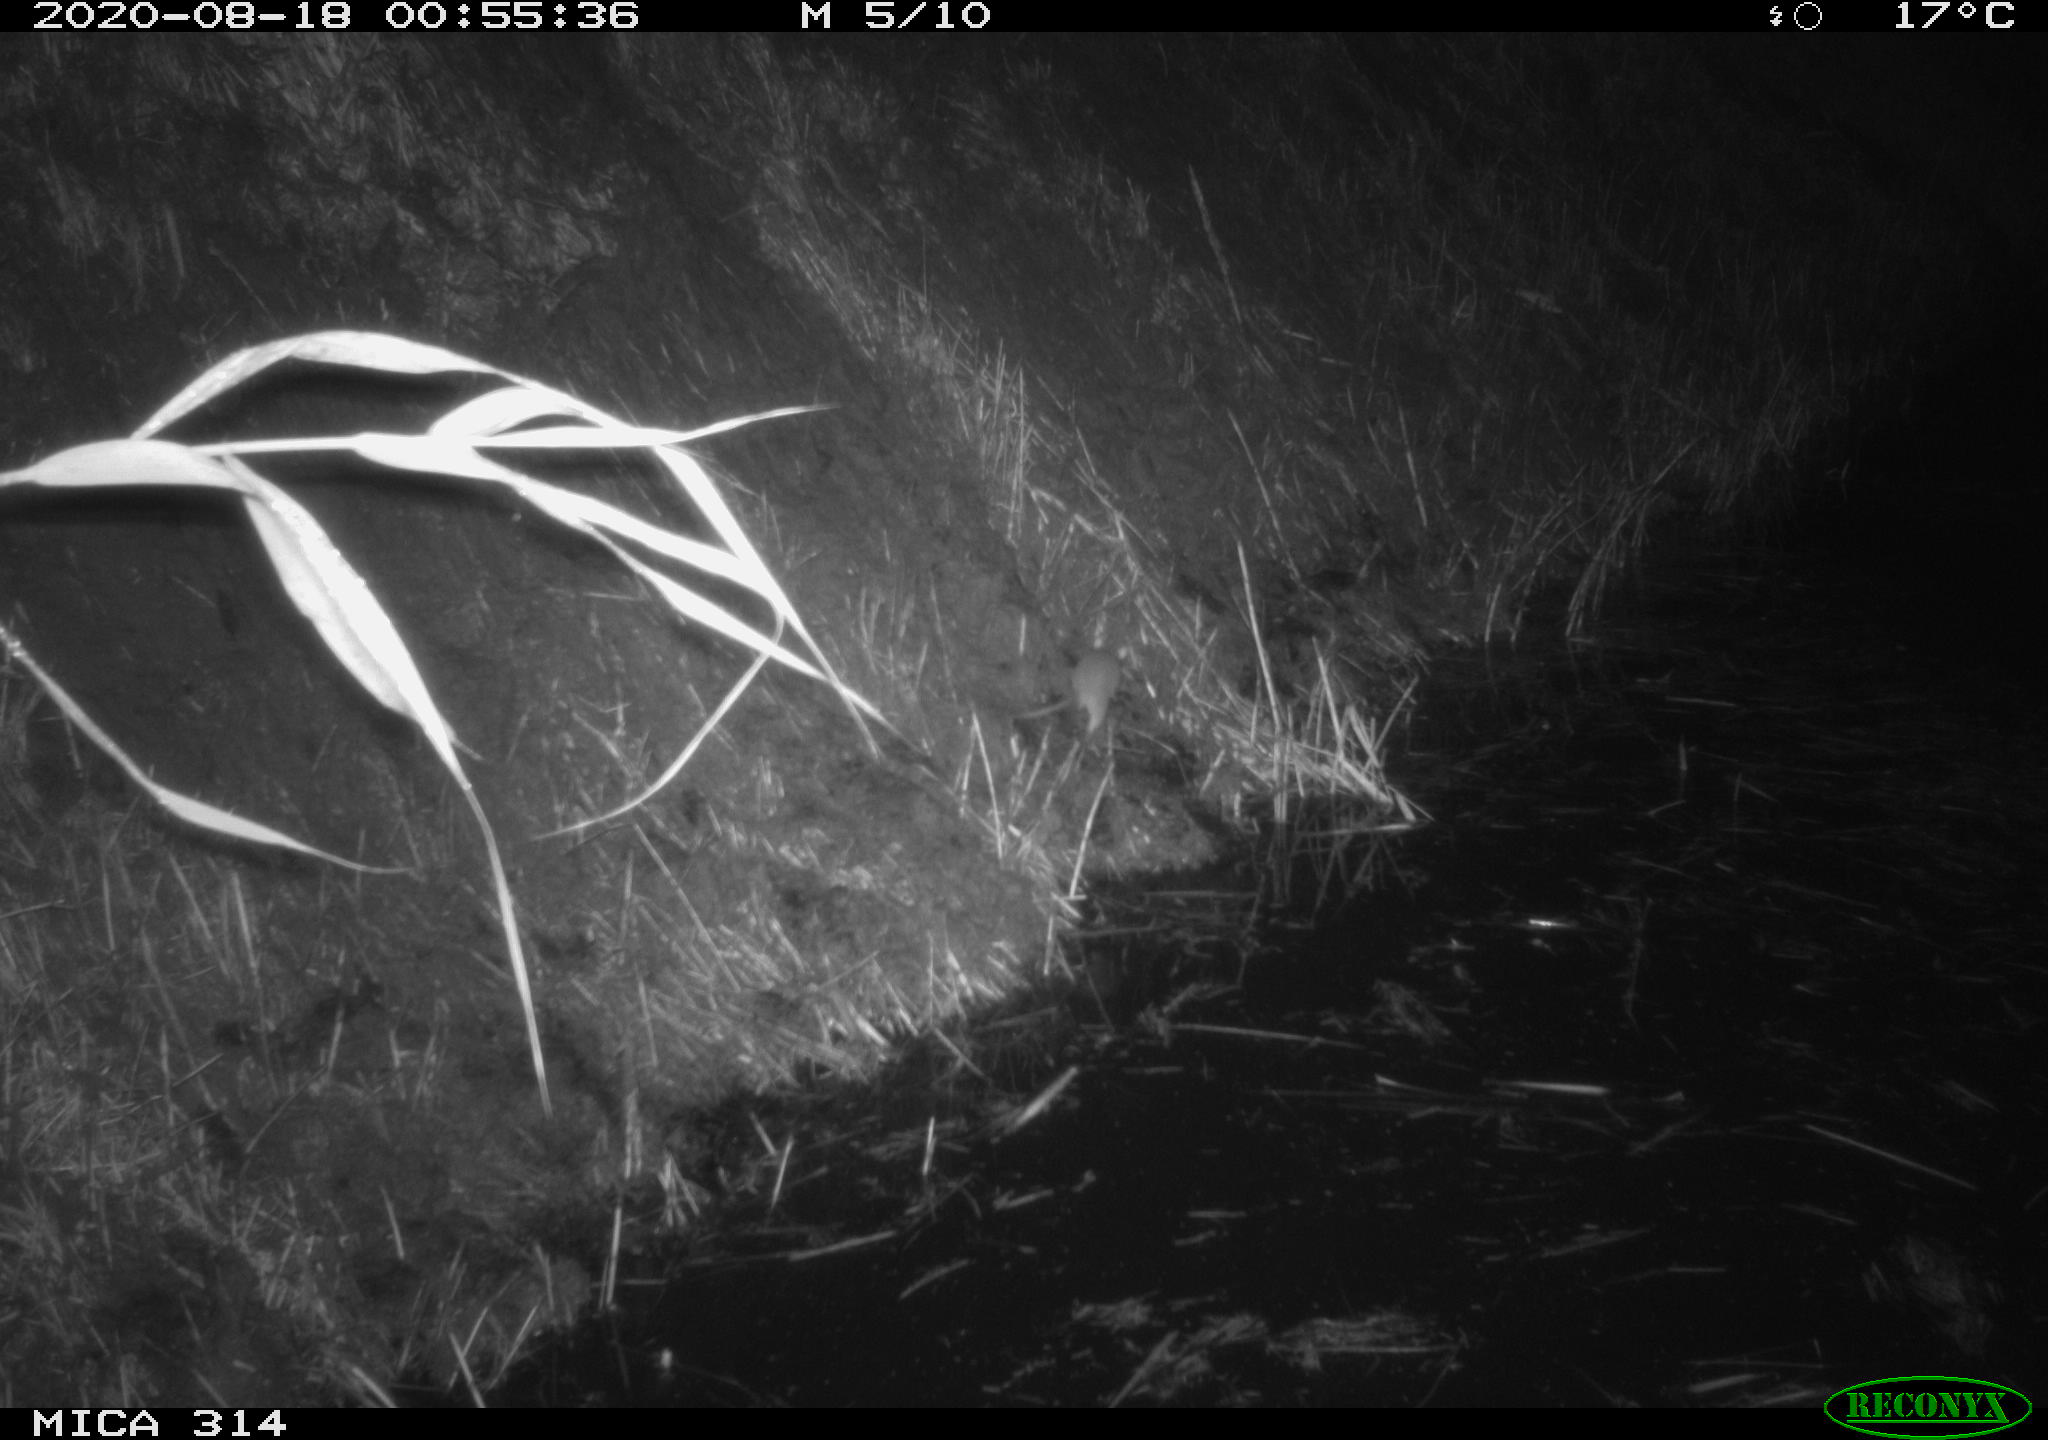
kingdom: Animalia
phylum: Chordata
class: Mammalia
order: Rodentia
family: Muridae
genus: Rattus
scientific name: Rattus norvegicus
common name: Brown rat
